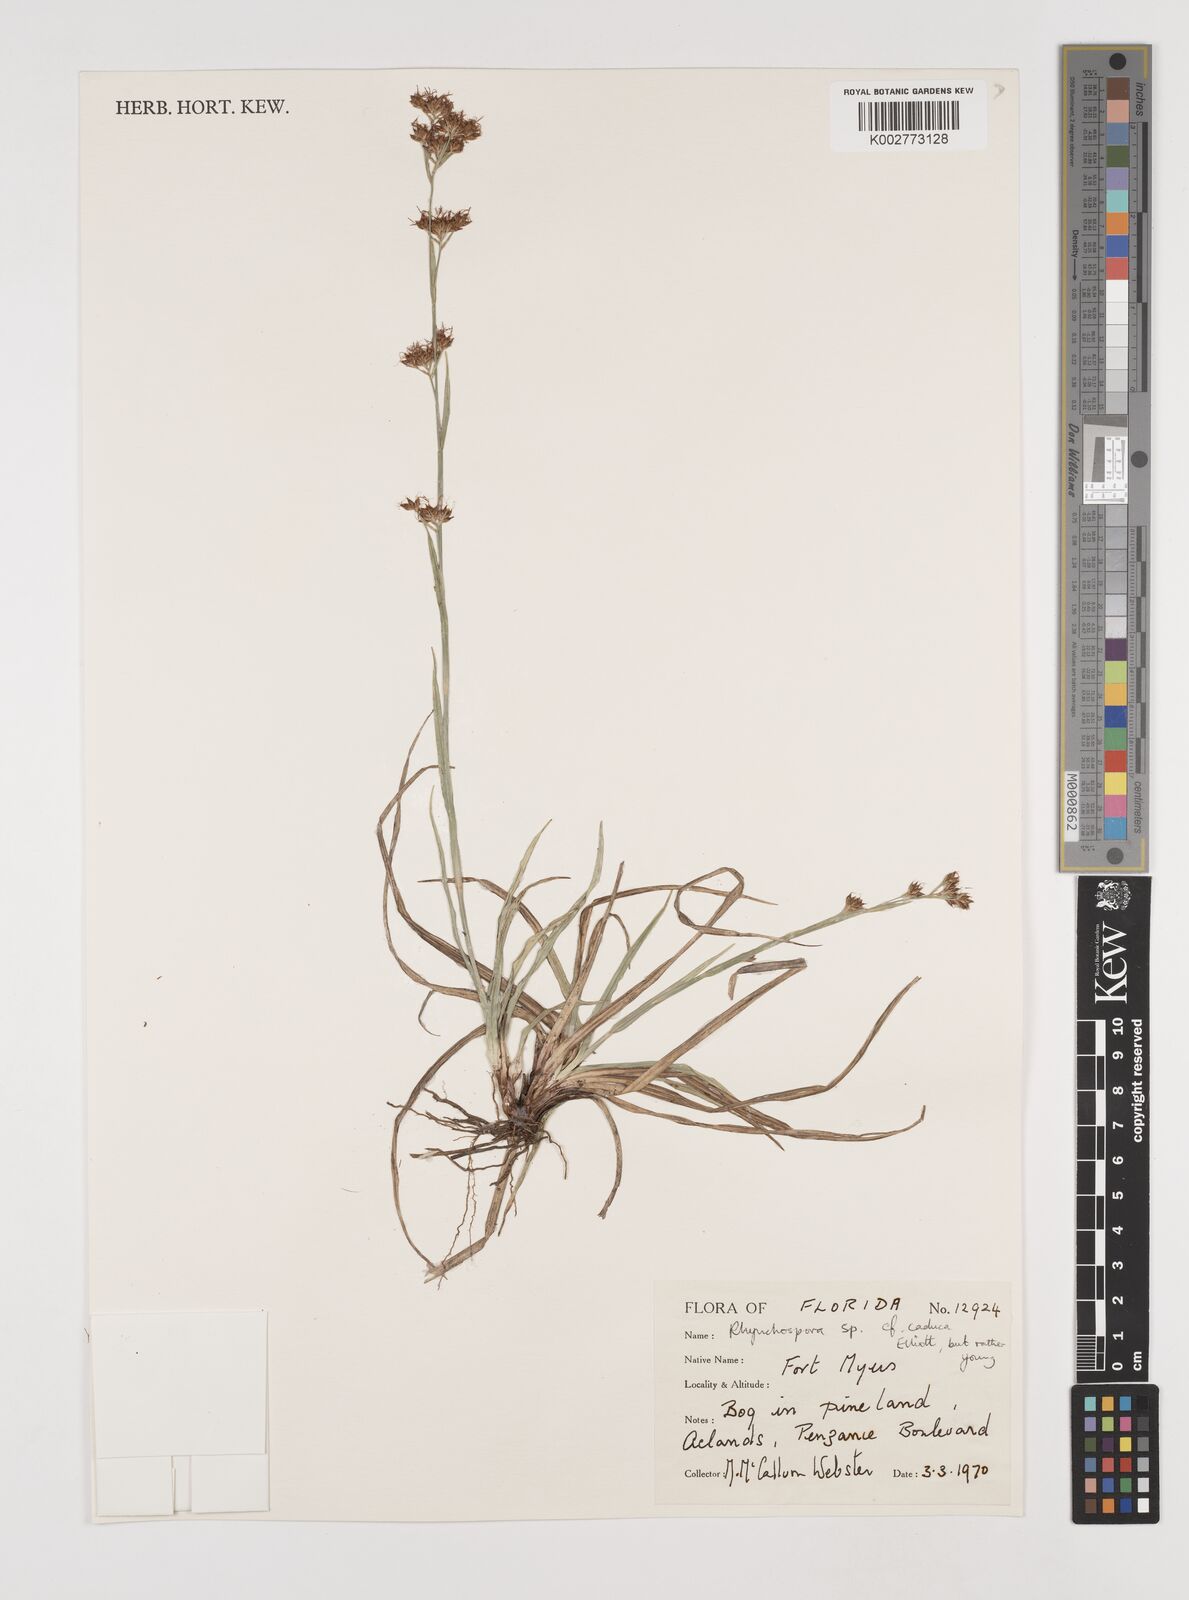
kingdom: Plantae
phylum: Tracheophyta
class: Liliopsida
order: Poales
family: Cyperaceae
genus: Rhynchospora
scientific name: Rhynchospora
